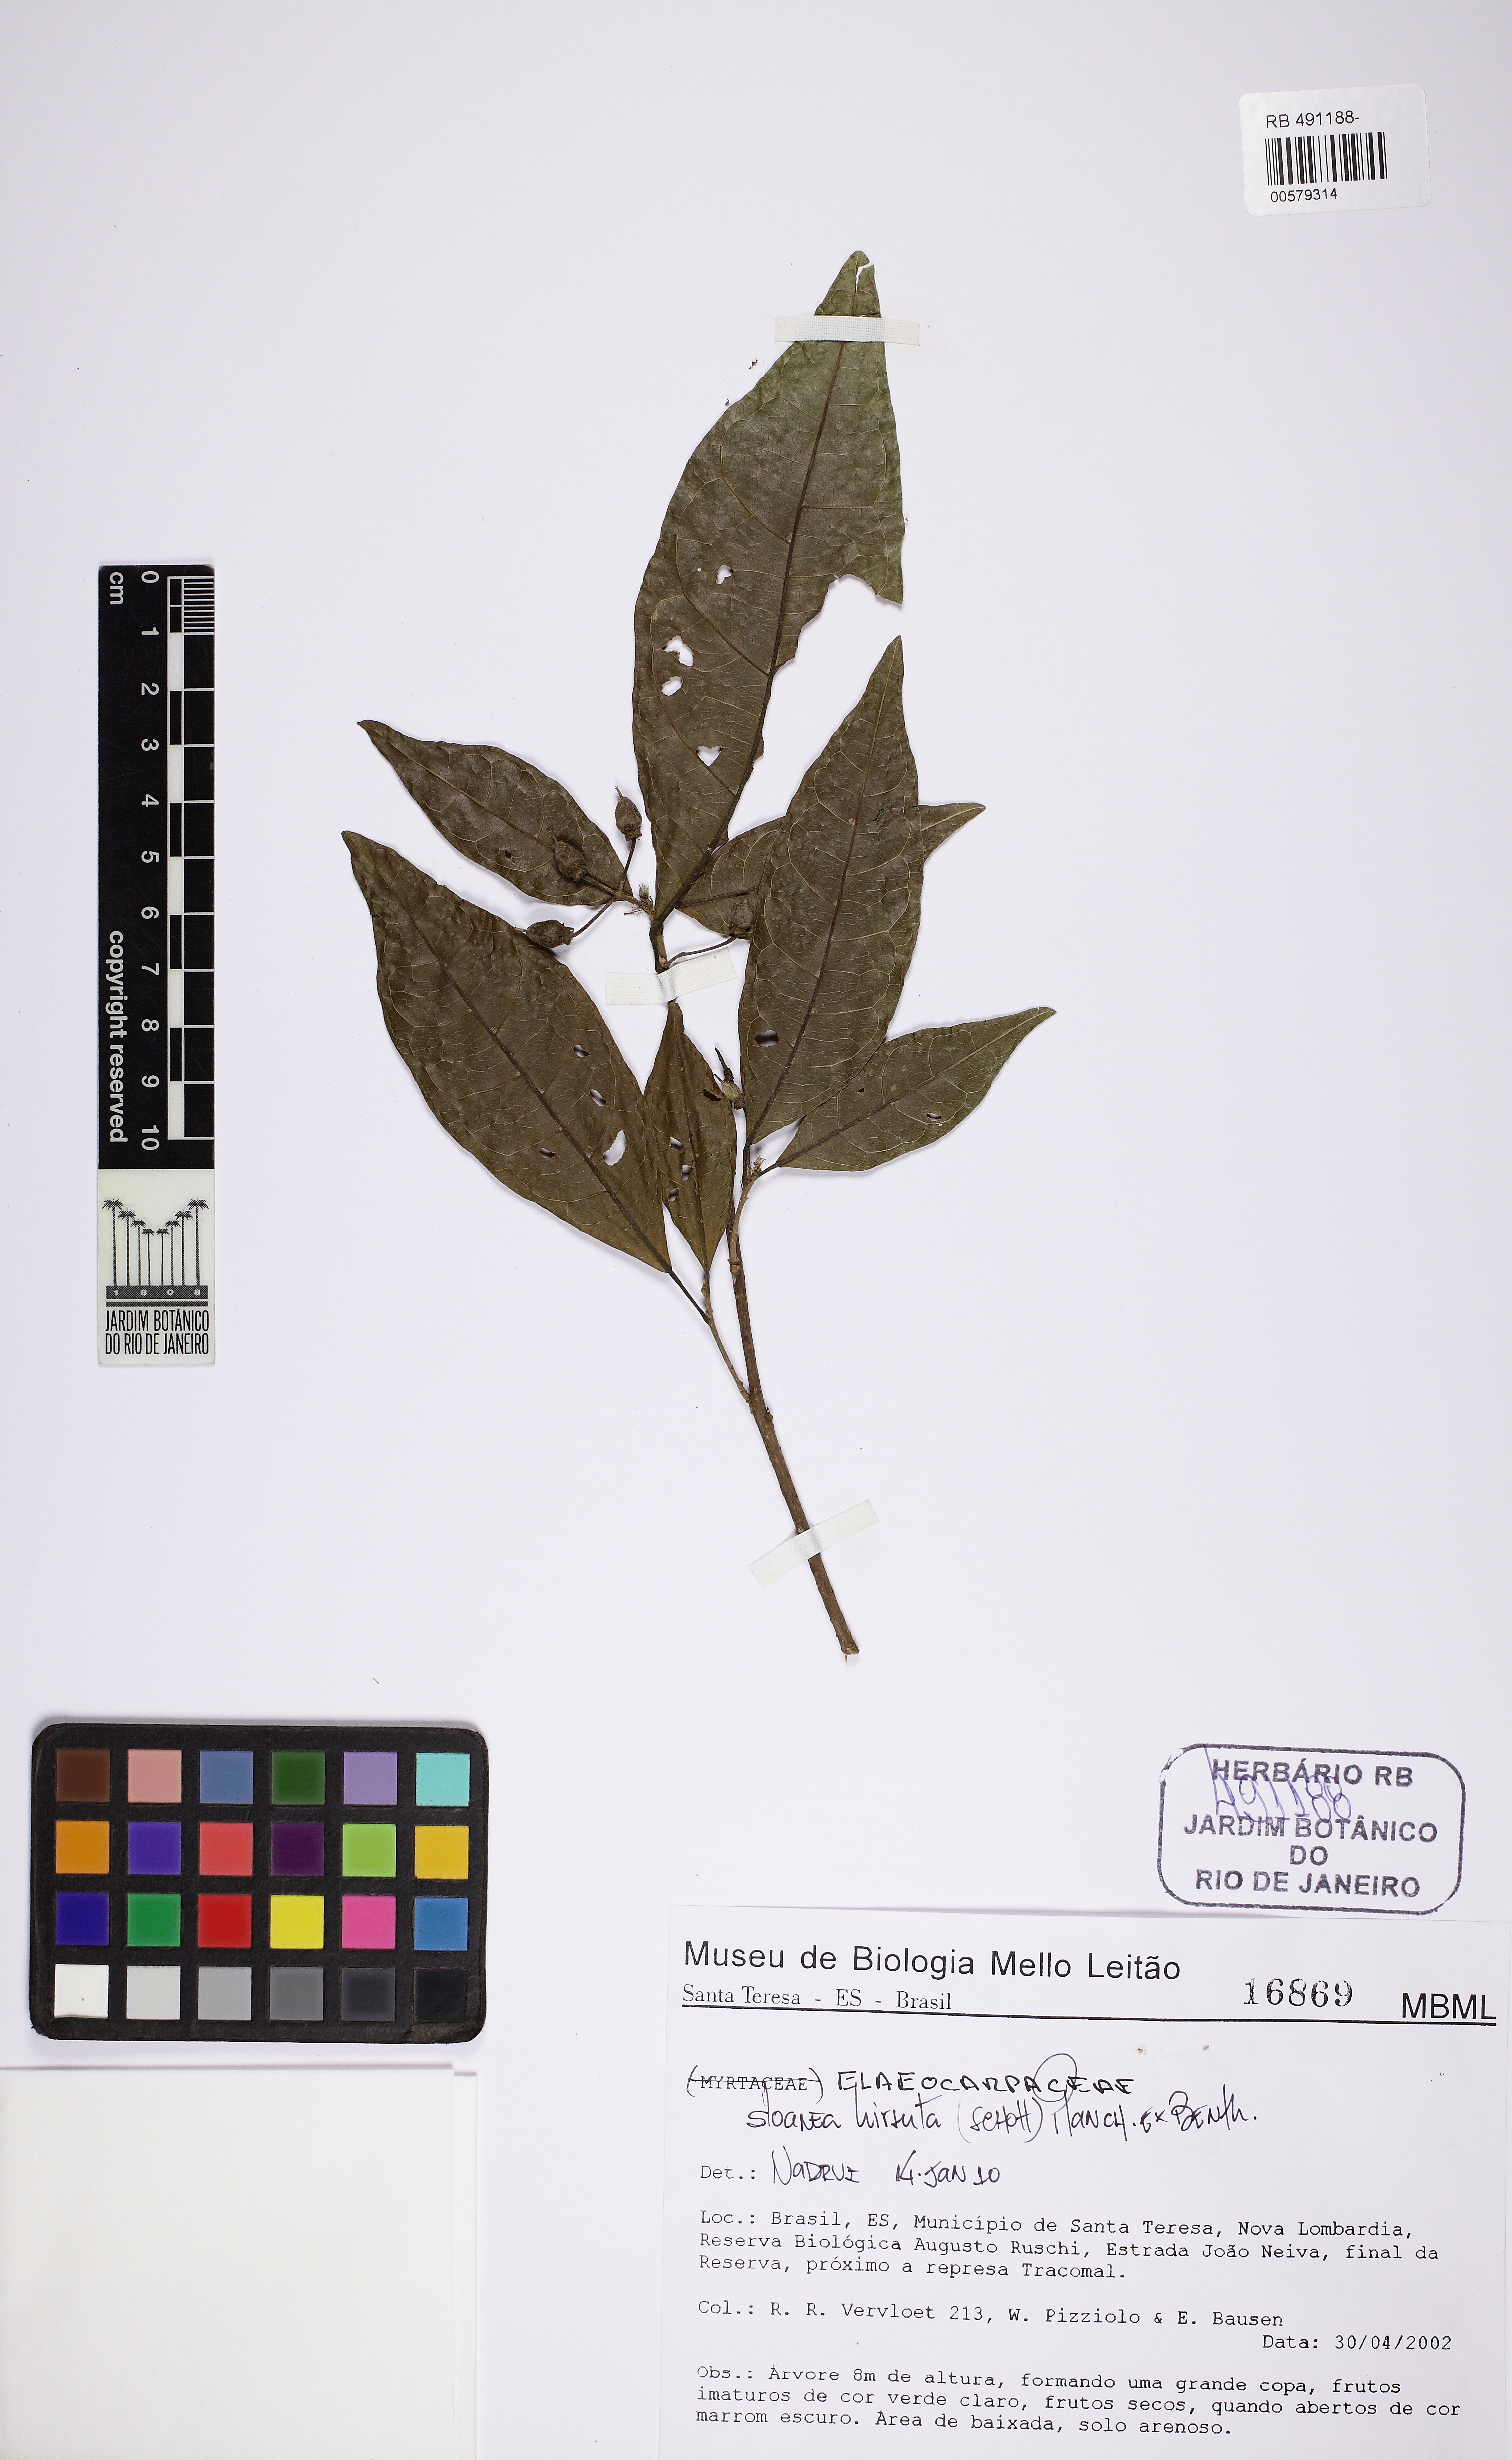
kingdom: Plantae
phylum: Tracheophyta
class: Magnoliopsida
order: Oxalidales
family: Elaeocarpaceae
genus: Sloanea
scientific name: Sloanea hirsuta
